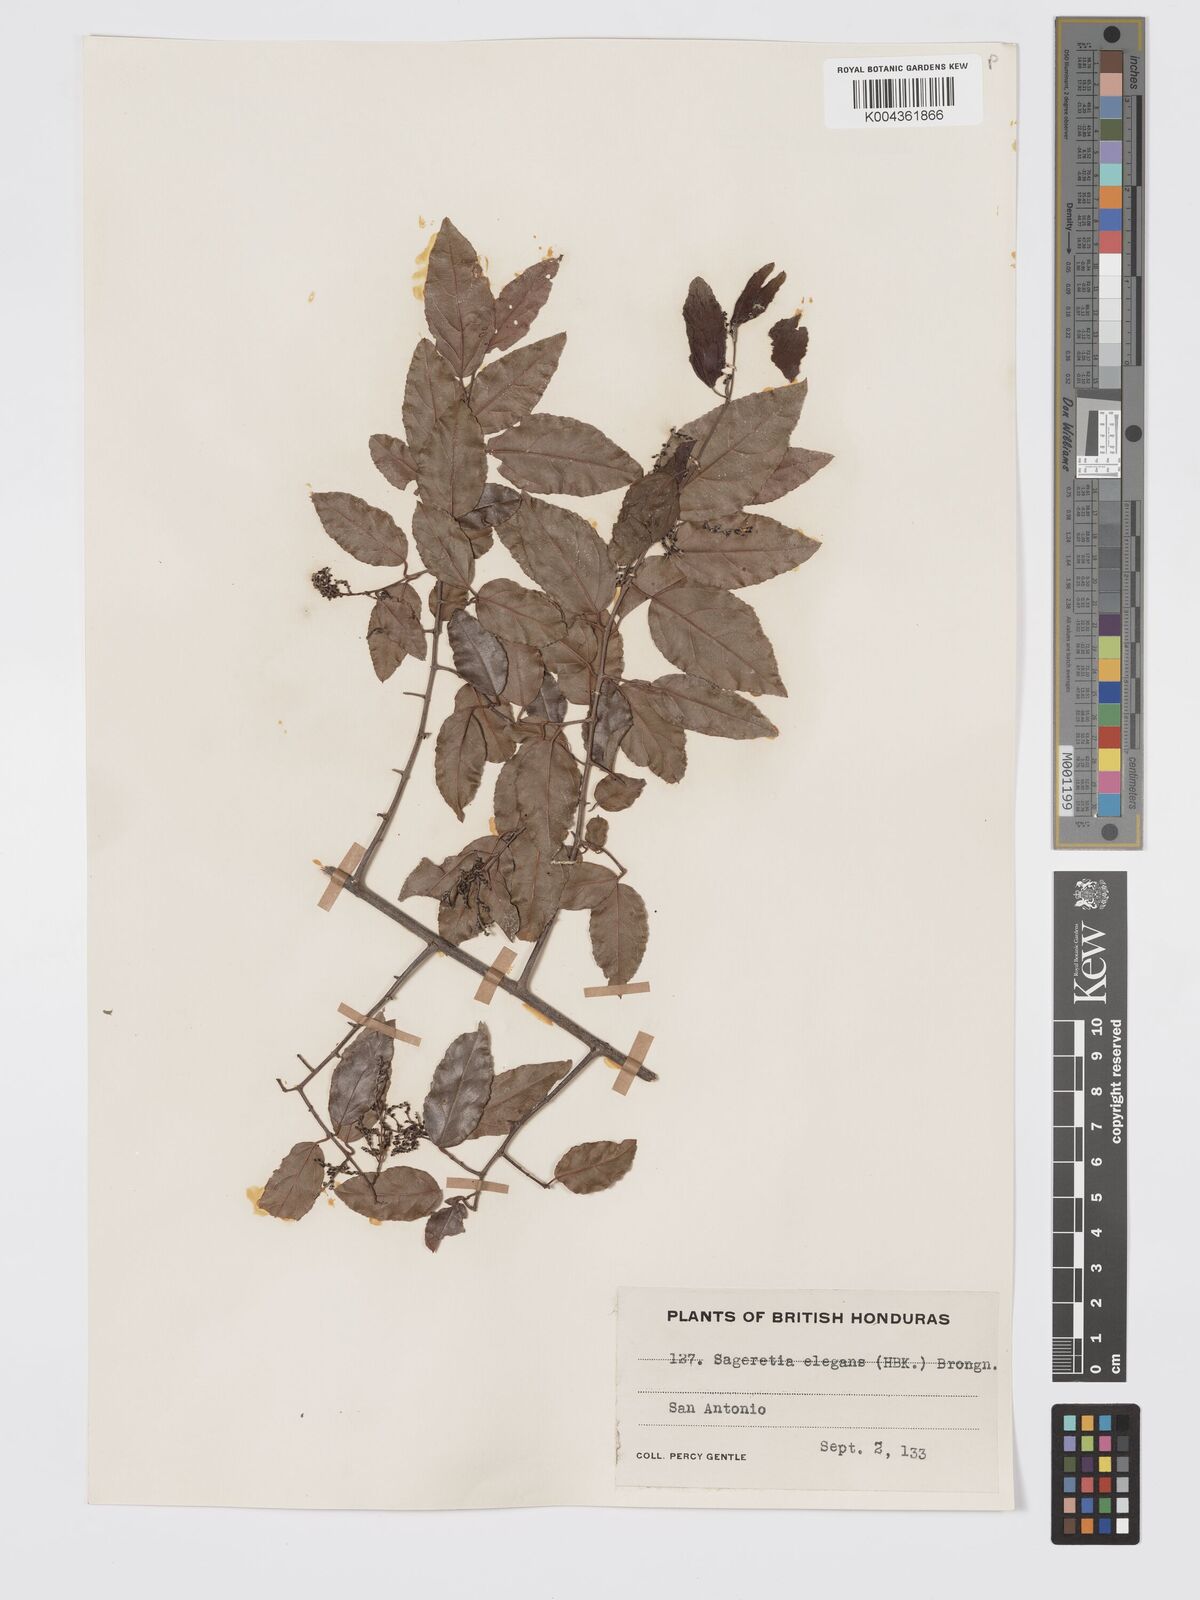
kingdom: Plantae
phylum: Tracheophyta
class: Magnoliopsida
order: Rosales
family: Rhamnaceae
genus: Sageretia
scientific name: Sageretia elegans
